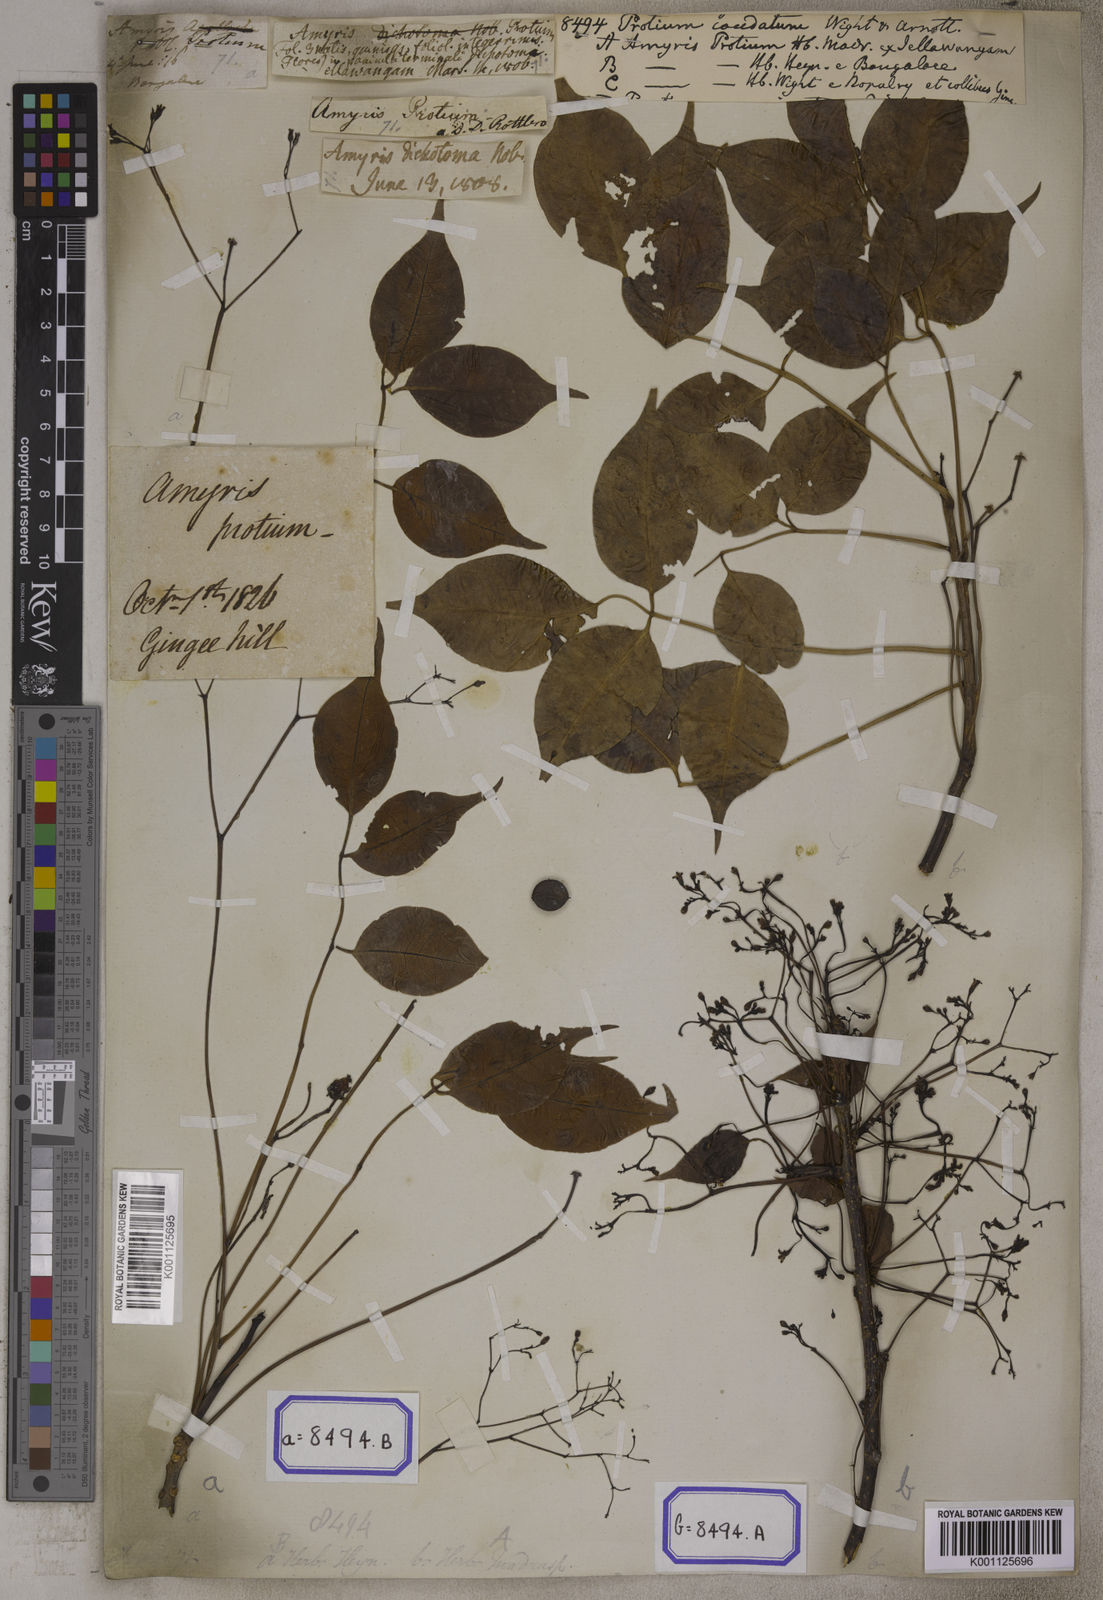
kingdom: Plantae
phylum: Tracheophyta
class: Magnoliopsida
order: Sapindales
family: Burseraceae
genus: Commiphora
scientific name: Commiphora caudata
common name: Hill-mango
